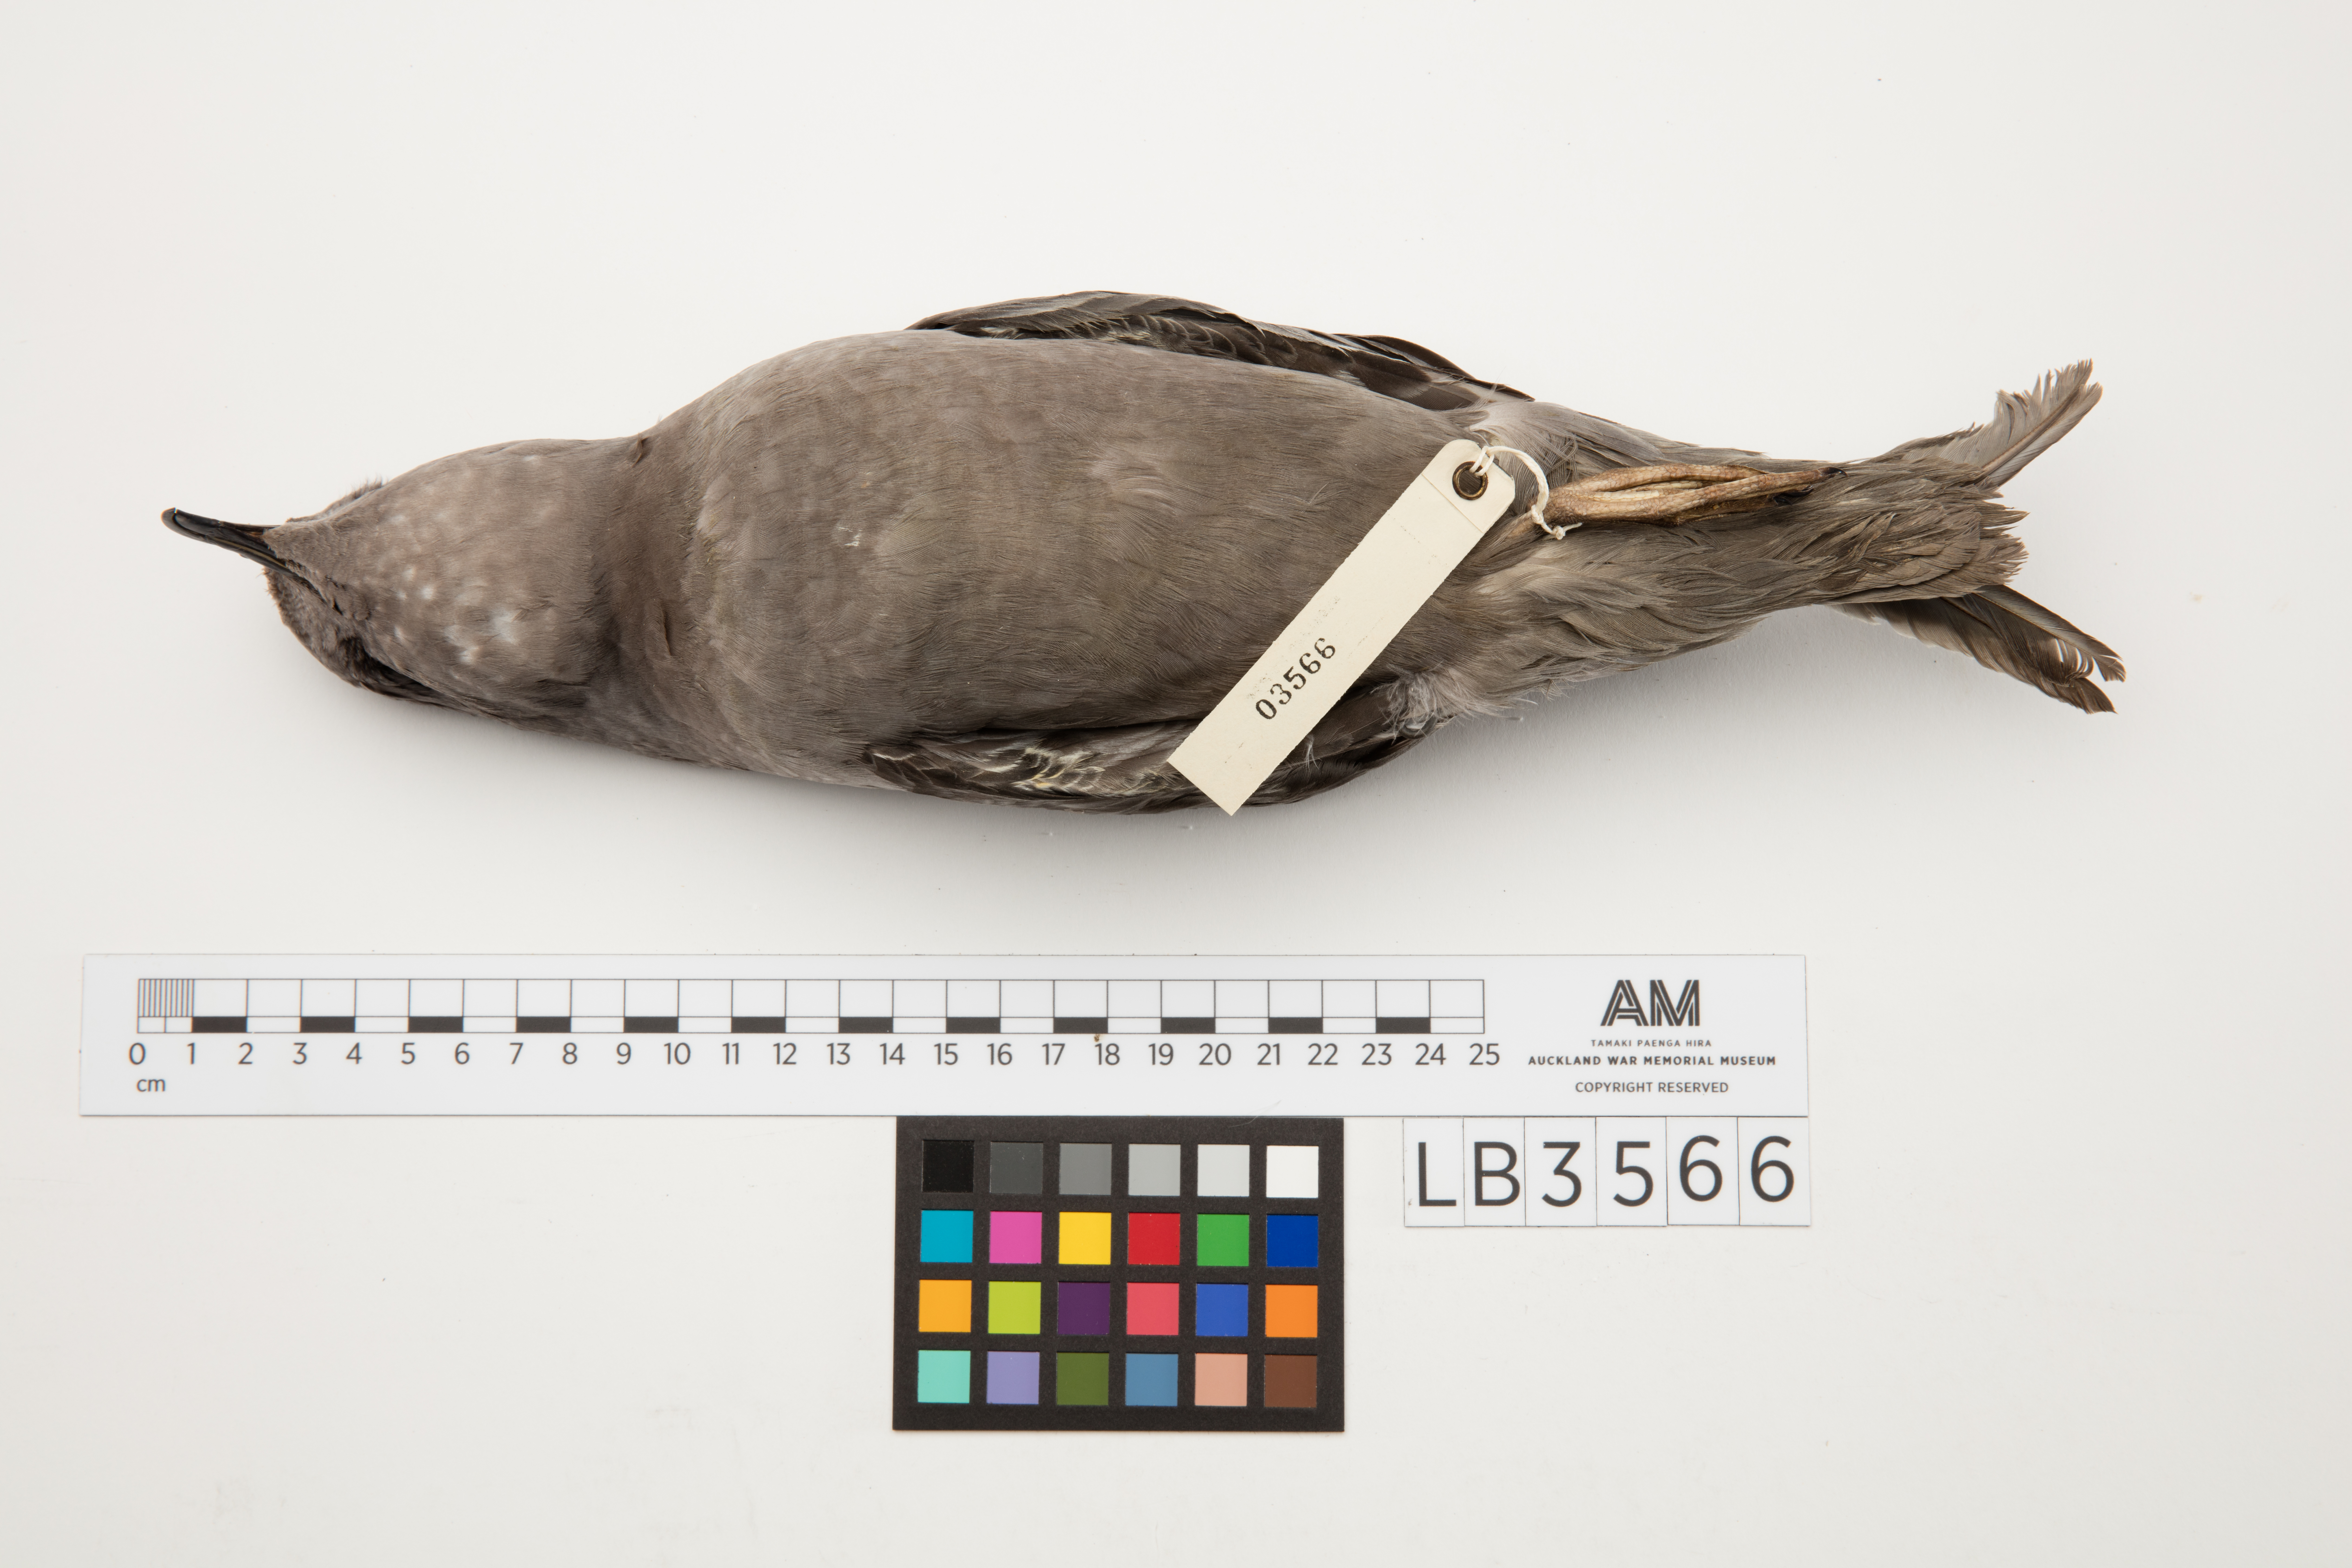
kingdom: Animalia
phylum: Chordata
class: Aves
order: Procellariiformes
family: Procellariidae
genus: Aphrodroma
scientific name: Aphrodroma brevirostris
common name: Kerguelen petrel
